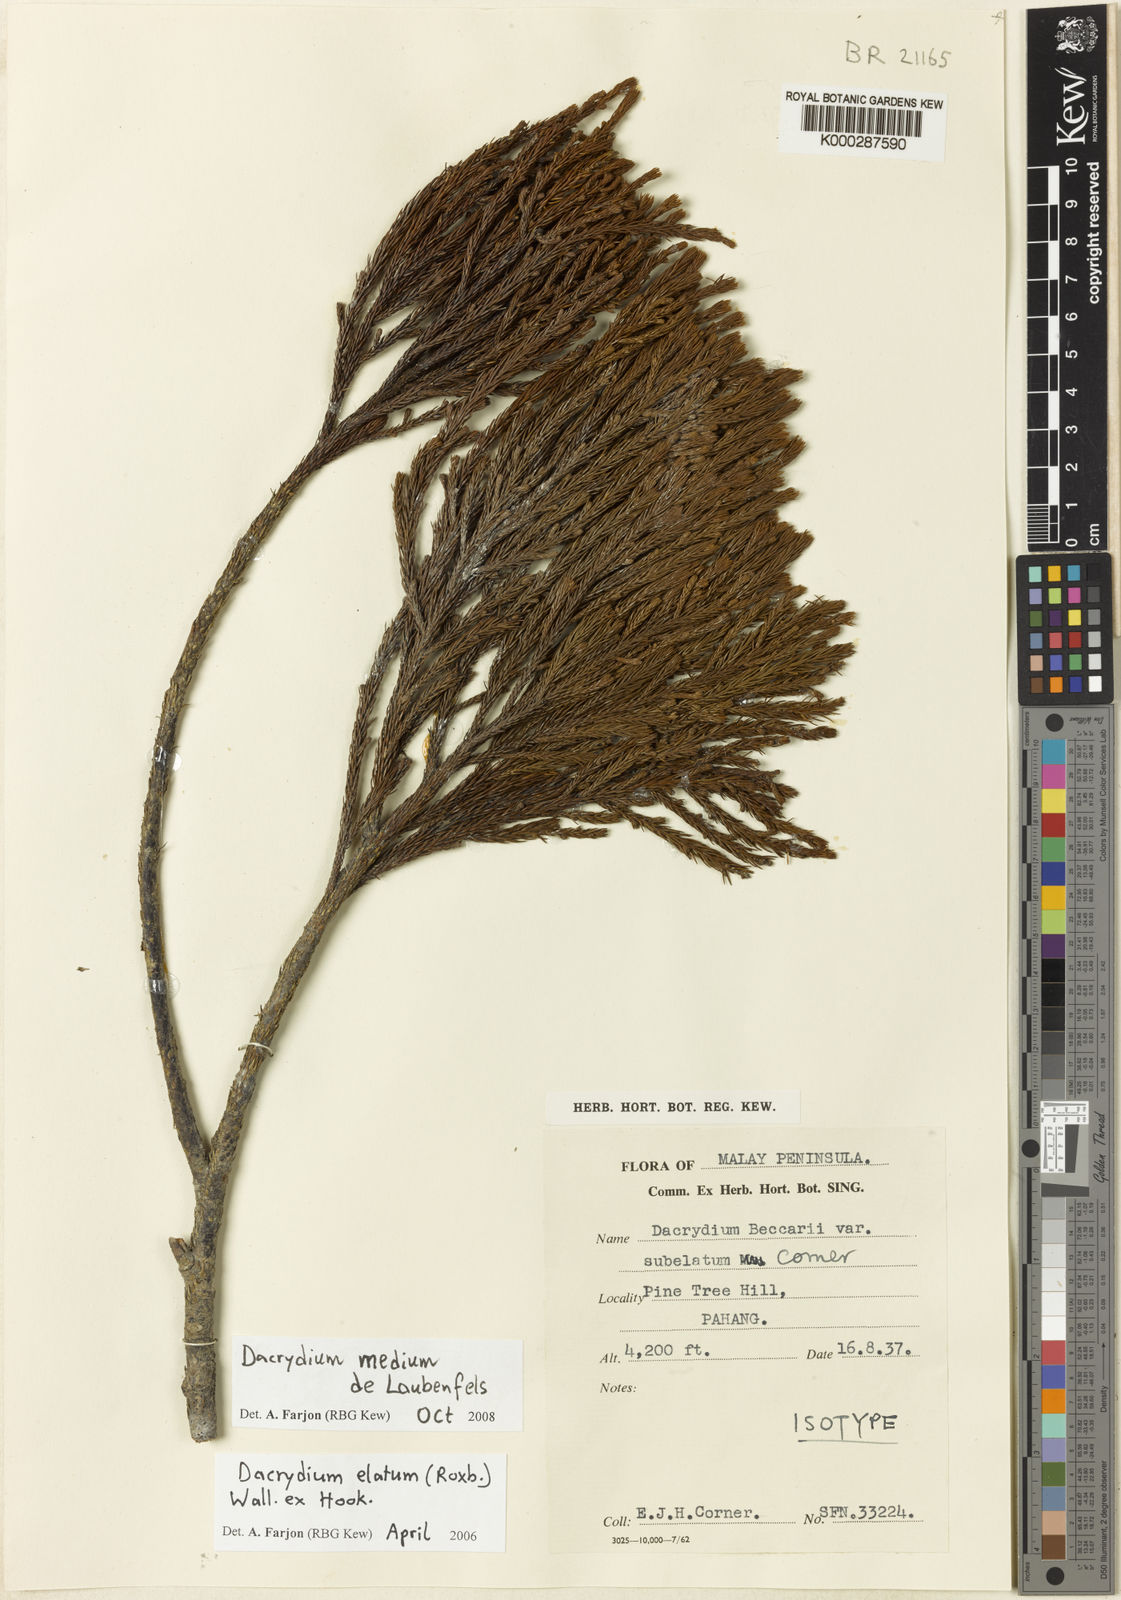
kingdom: Plantae
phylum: Tracheophyta
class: Pinopsida
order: Pinales
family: Podocarpaceae
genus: Dacrydium
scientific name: Dacrydium medium
